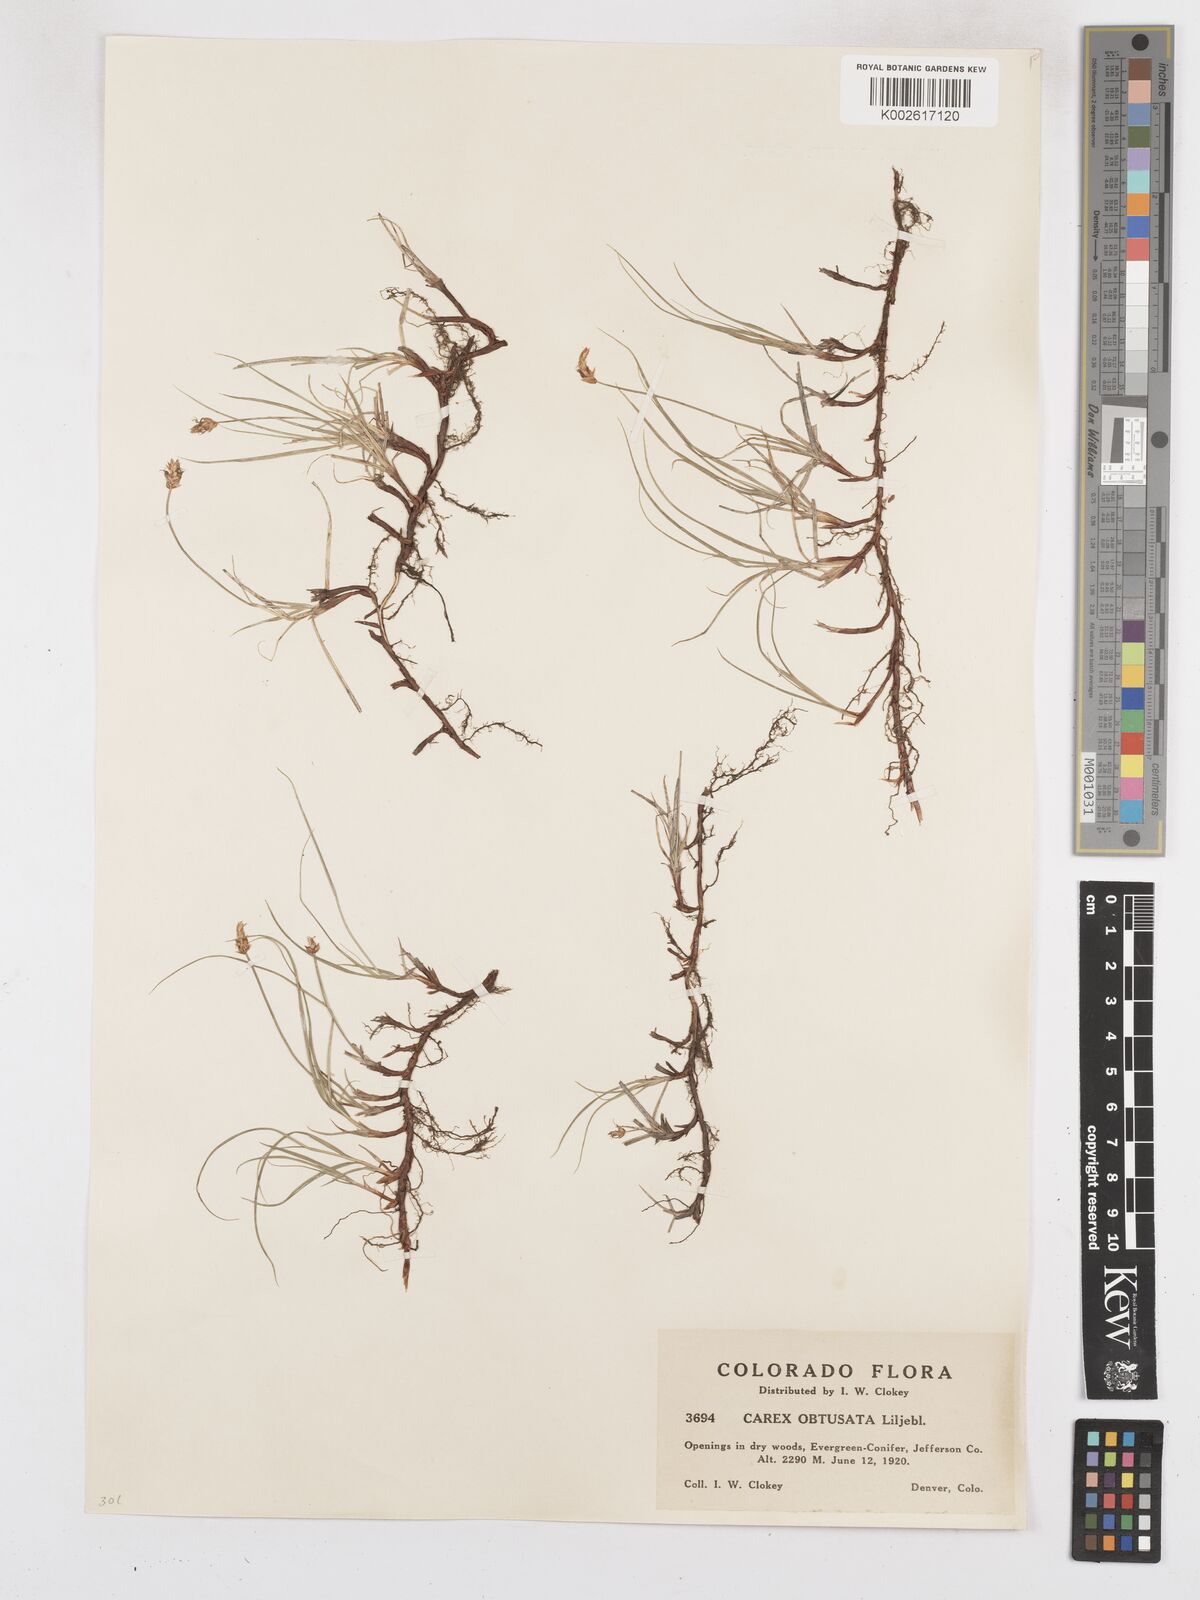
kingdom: Plantae
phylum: Tracheophyta
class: Liliopsida
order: Poales
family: Cyperaceae
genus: Carex
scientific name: Carex obtusata
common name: Blunt sedge
